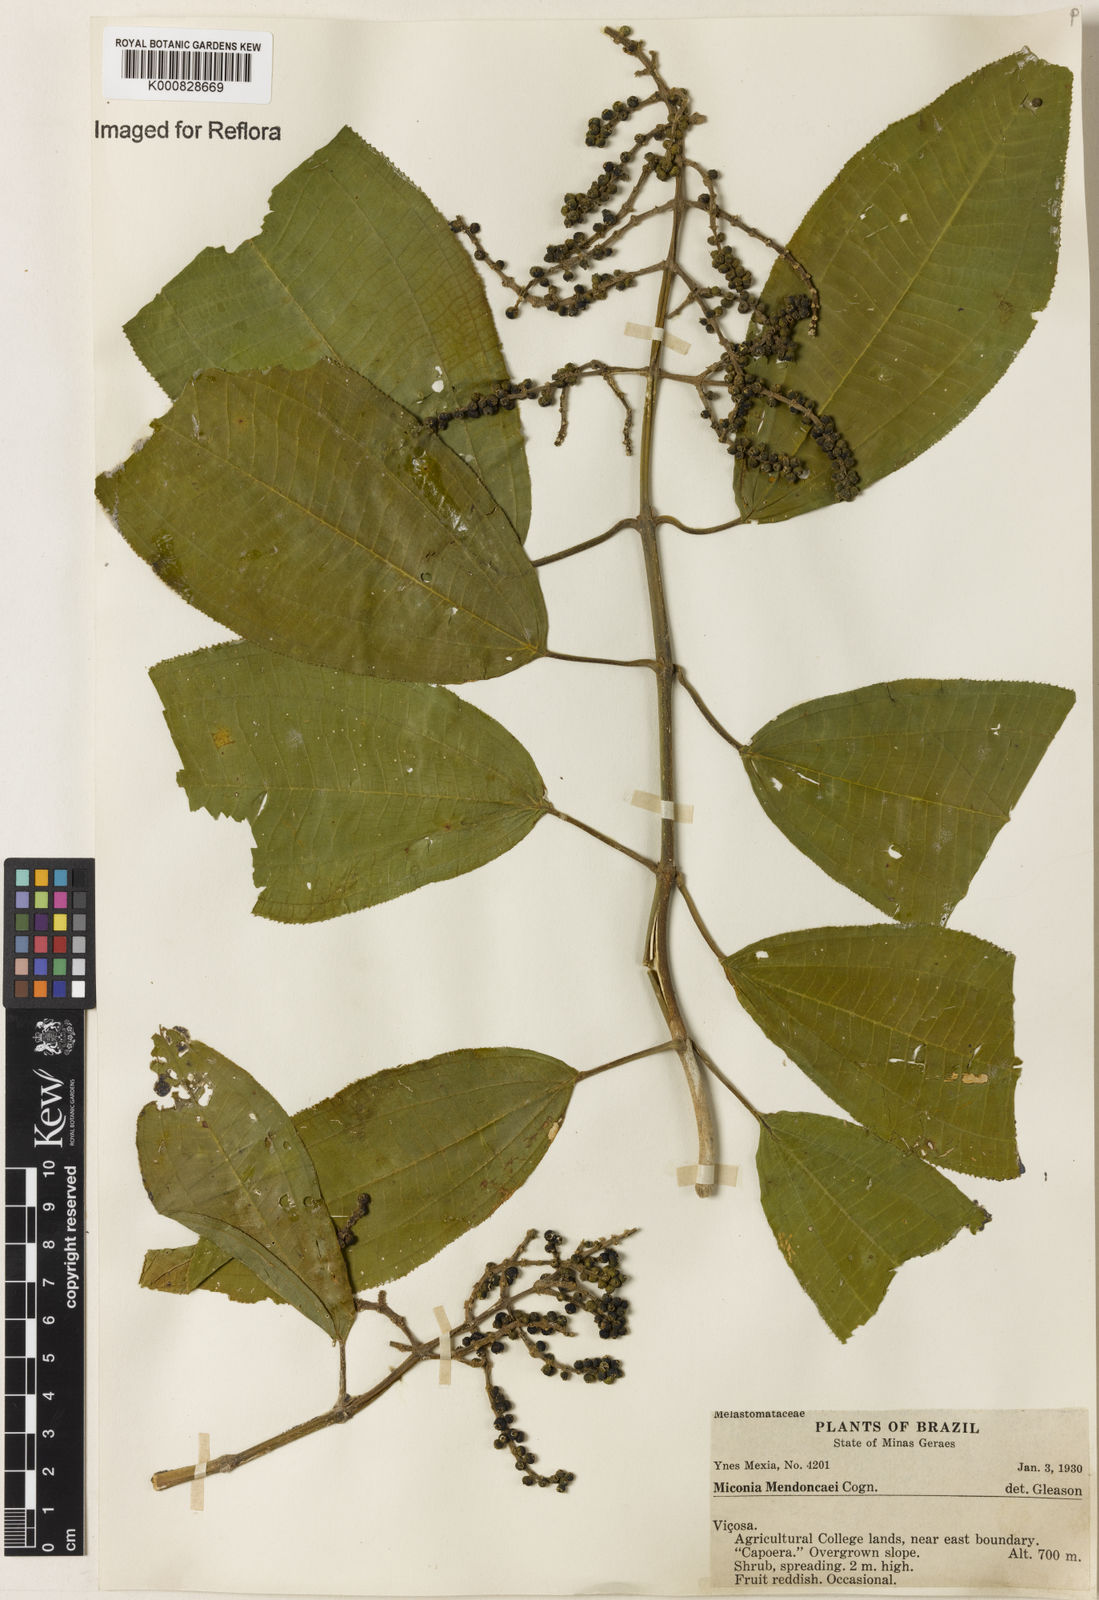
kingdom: Plantae
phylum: Tracheophyta
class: Magnoliopsida
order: Myrtales
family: Melastomataceae
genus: Miconia
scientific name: Miconia mendoncaei
